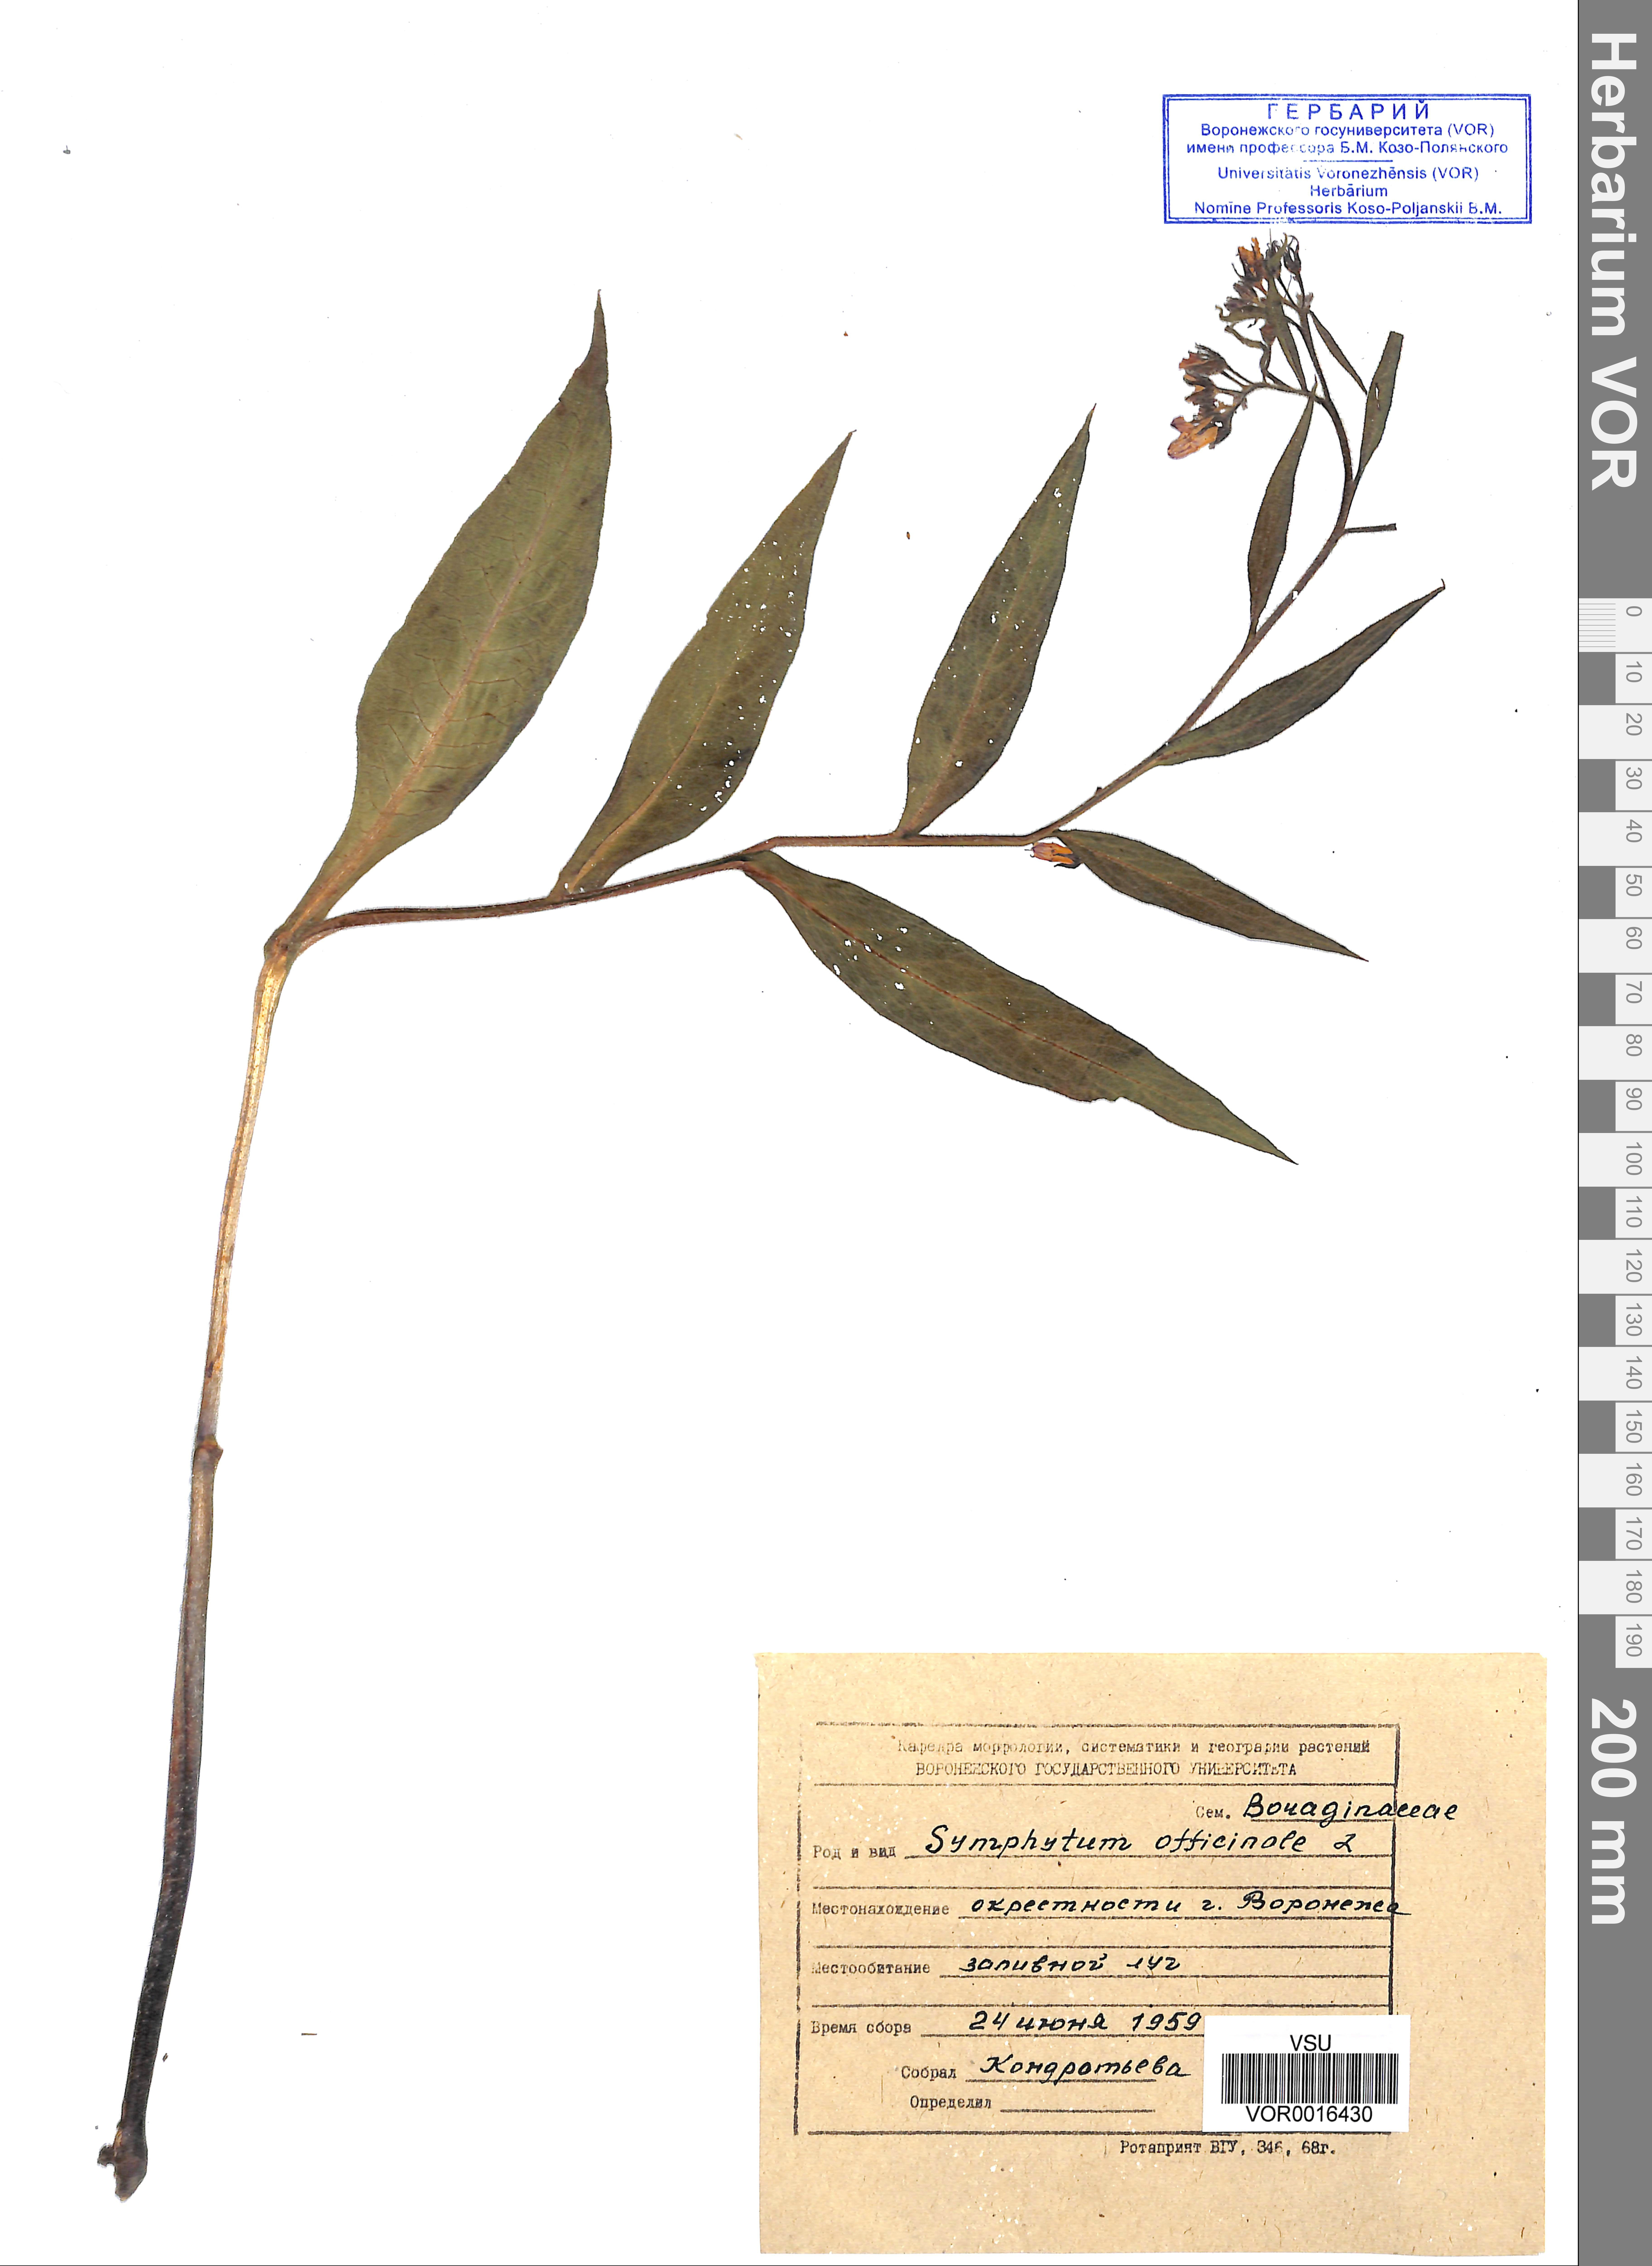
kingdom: Plantae
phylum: Tracheophyta
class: Magnoliopsida
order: Boraginales
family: Boraginaceae
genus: Symphytum
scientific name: Symphytum officinale
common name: Common comfrey
